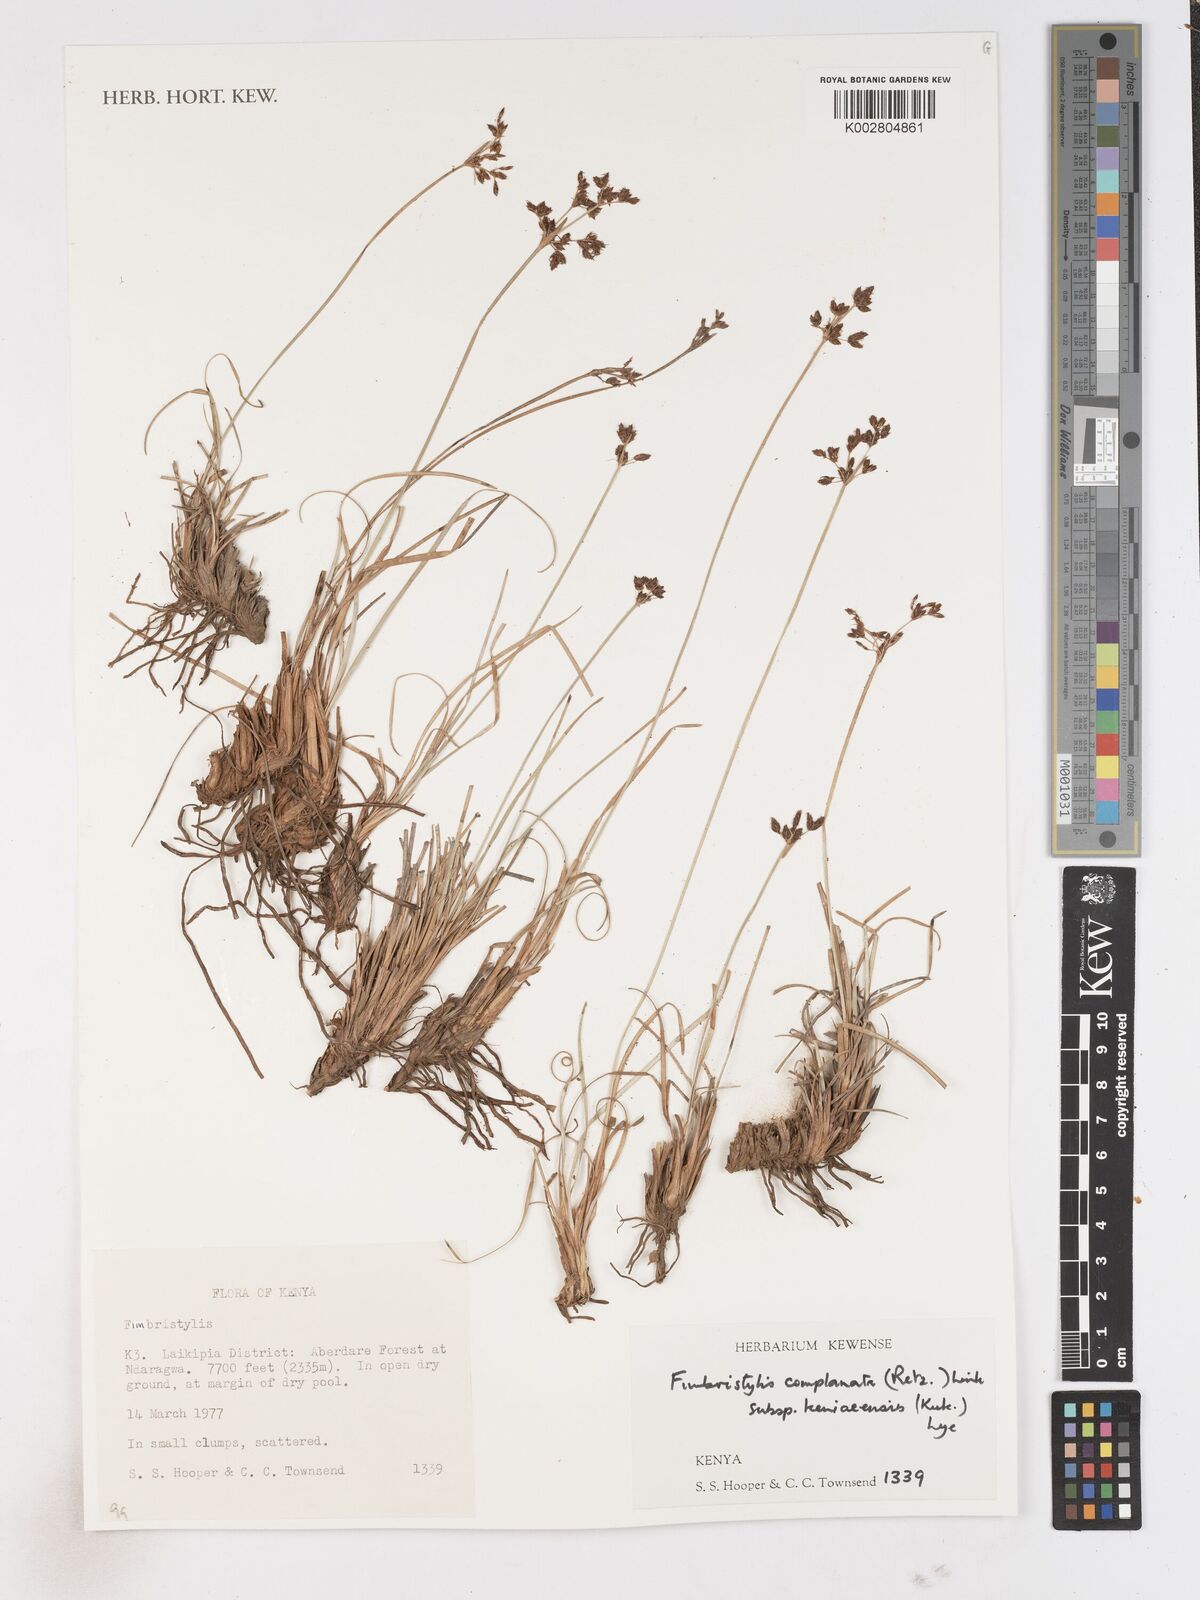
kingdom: Plantae
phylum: Tracheophyta
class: Liliopsida
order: Poales
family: Cyperaceae
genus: Fimbristylis
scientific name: Fimbristylis complanata
